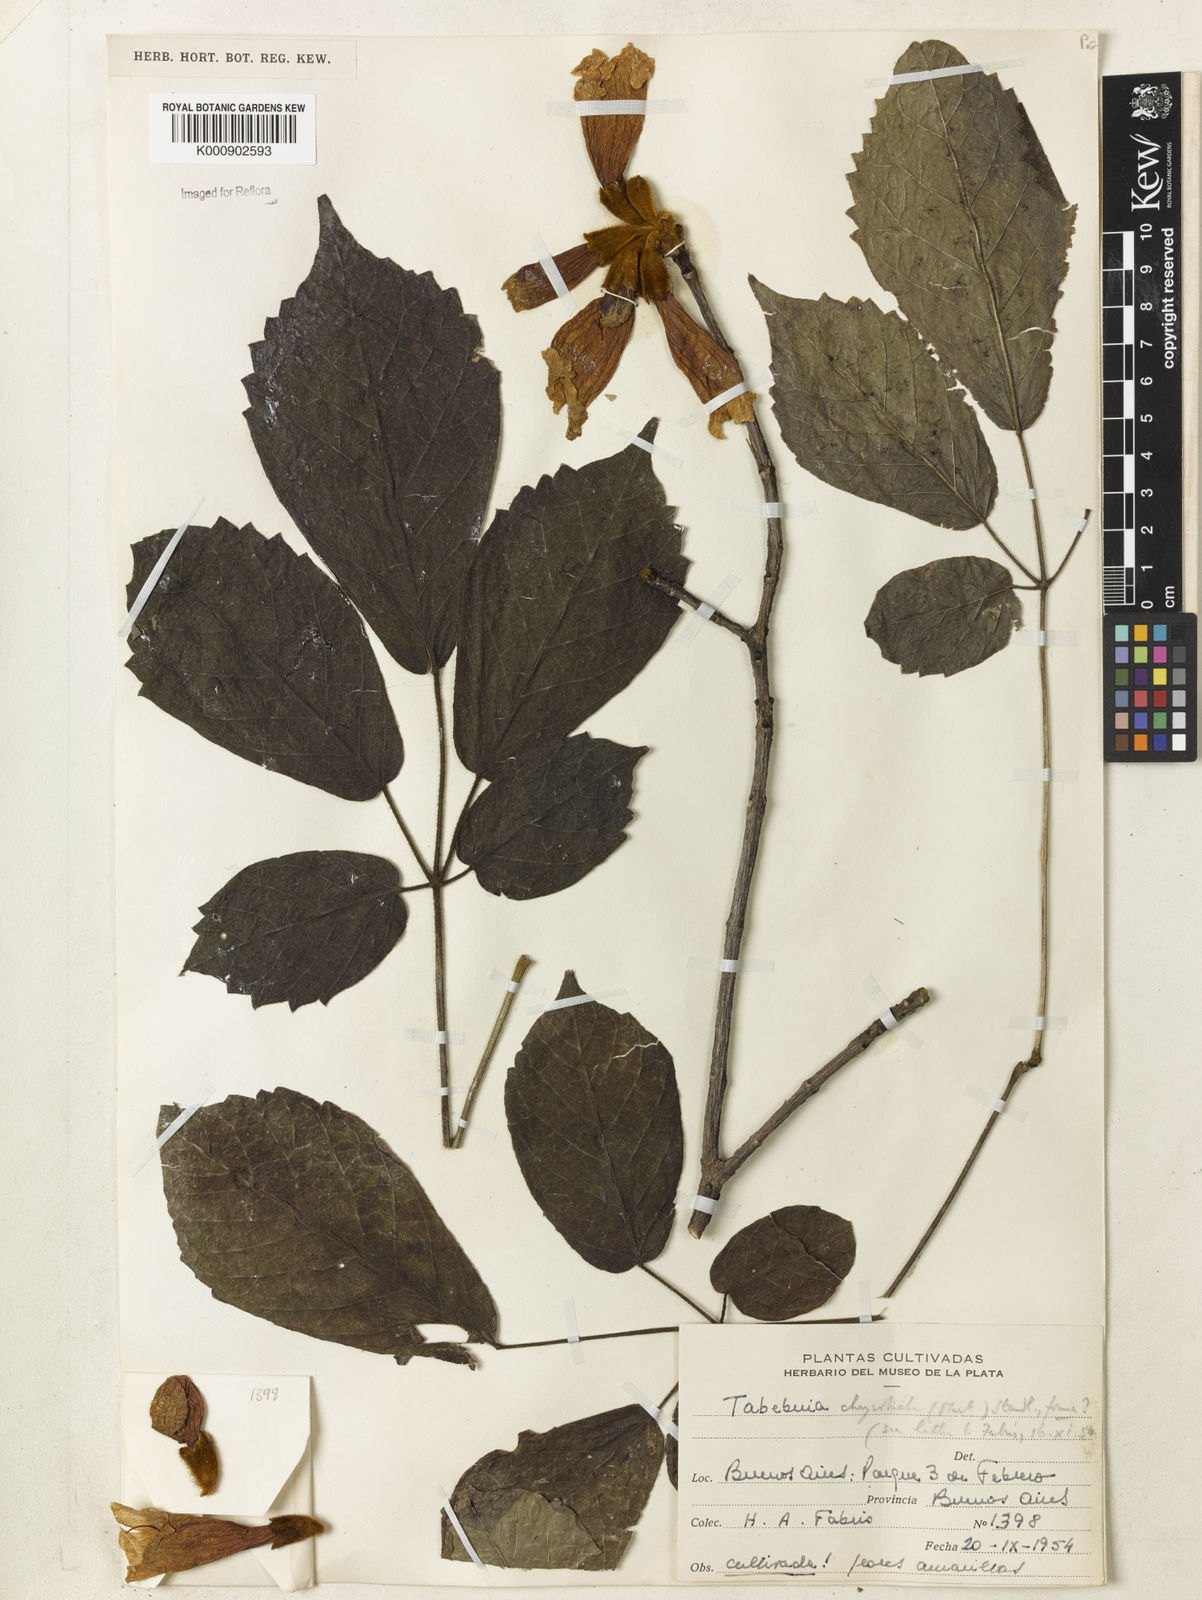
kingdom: Plantae
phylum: Tracheophyta
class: Magnoliopsida
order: Lamiales
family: Bignoniaceae
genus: Handroanthus
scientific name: Handroanthus chrysotrichus
